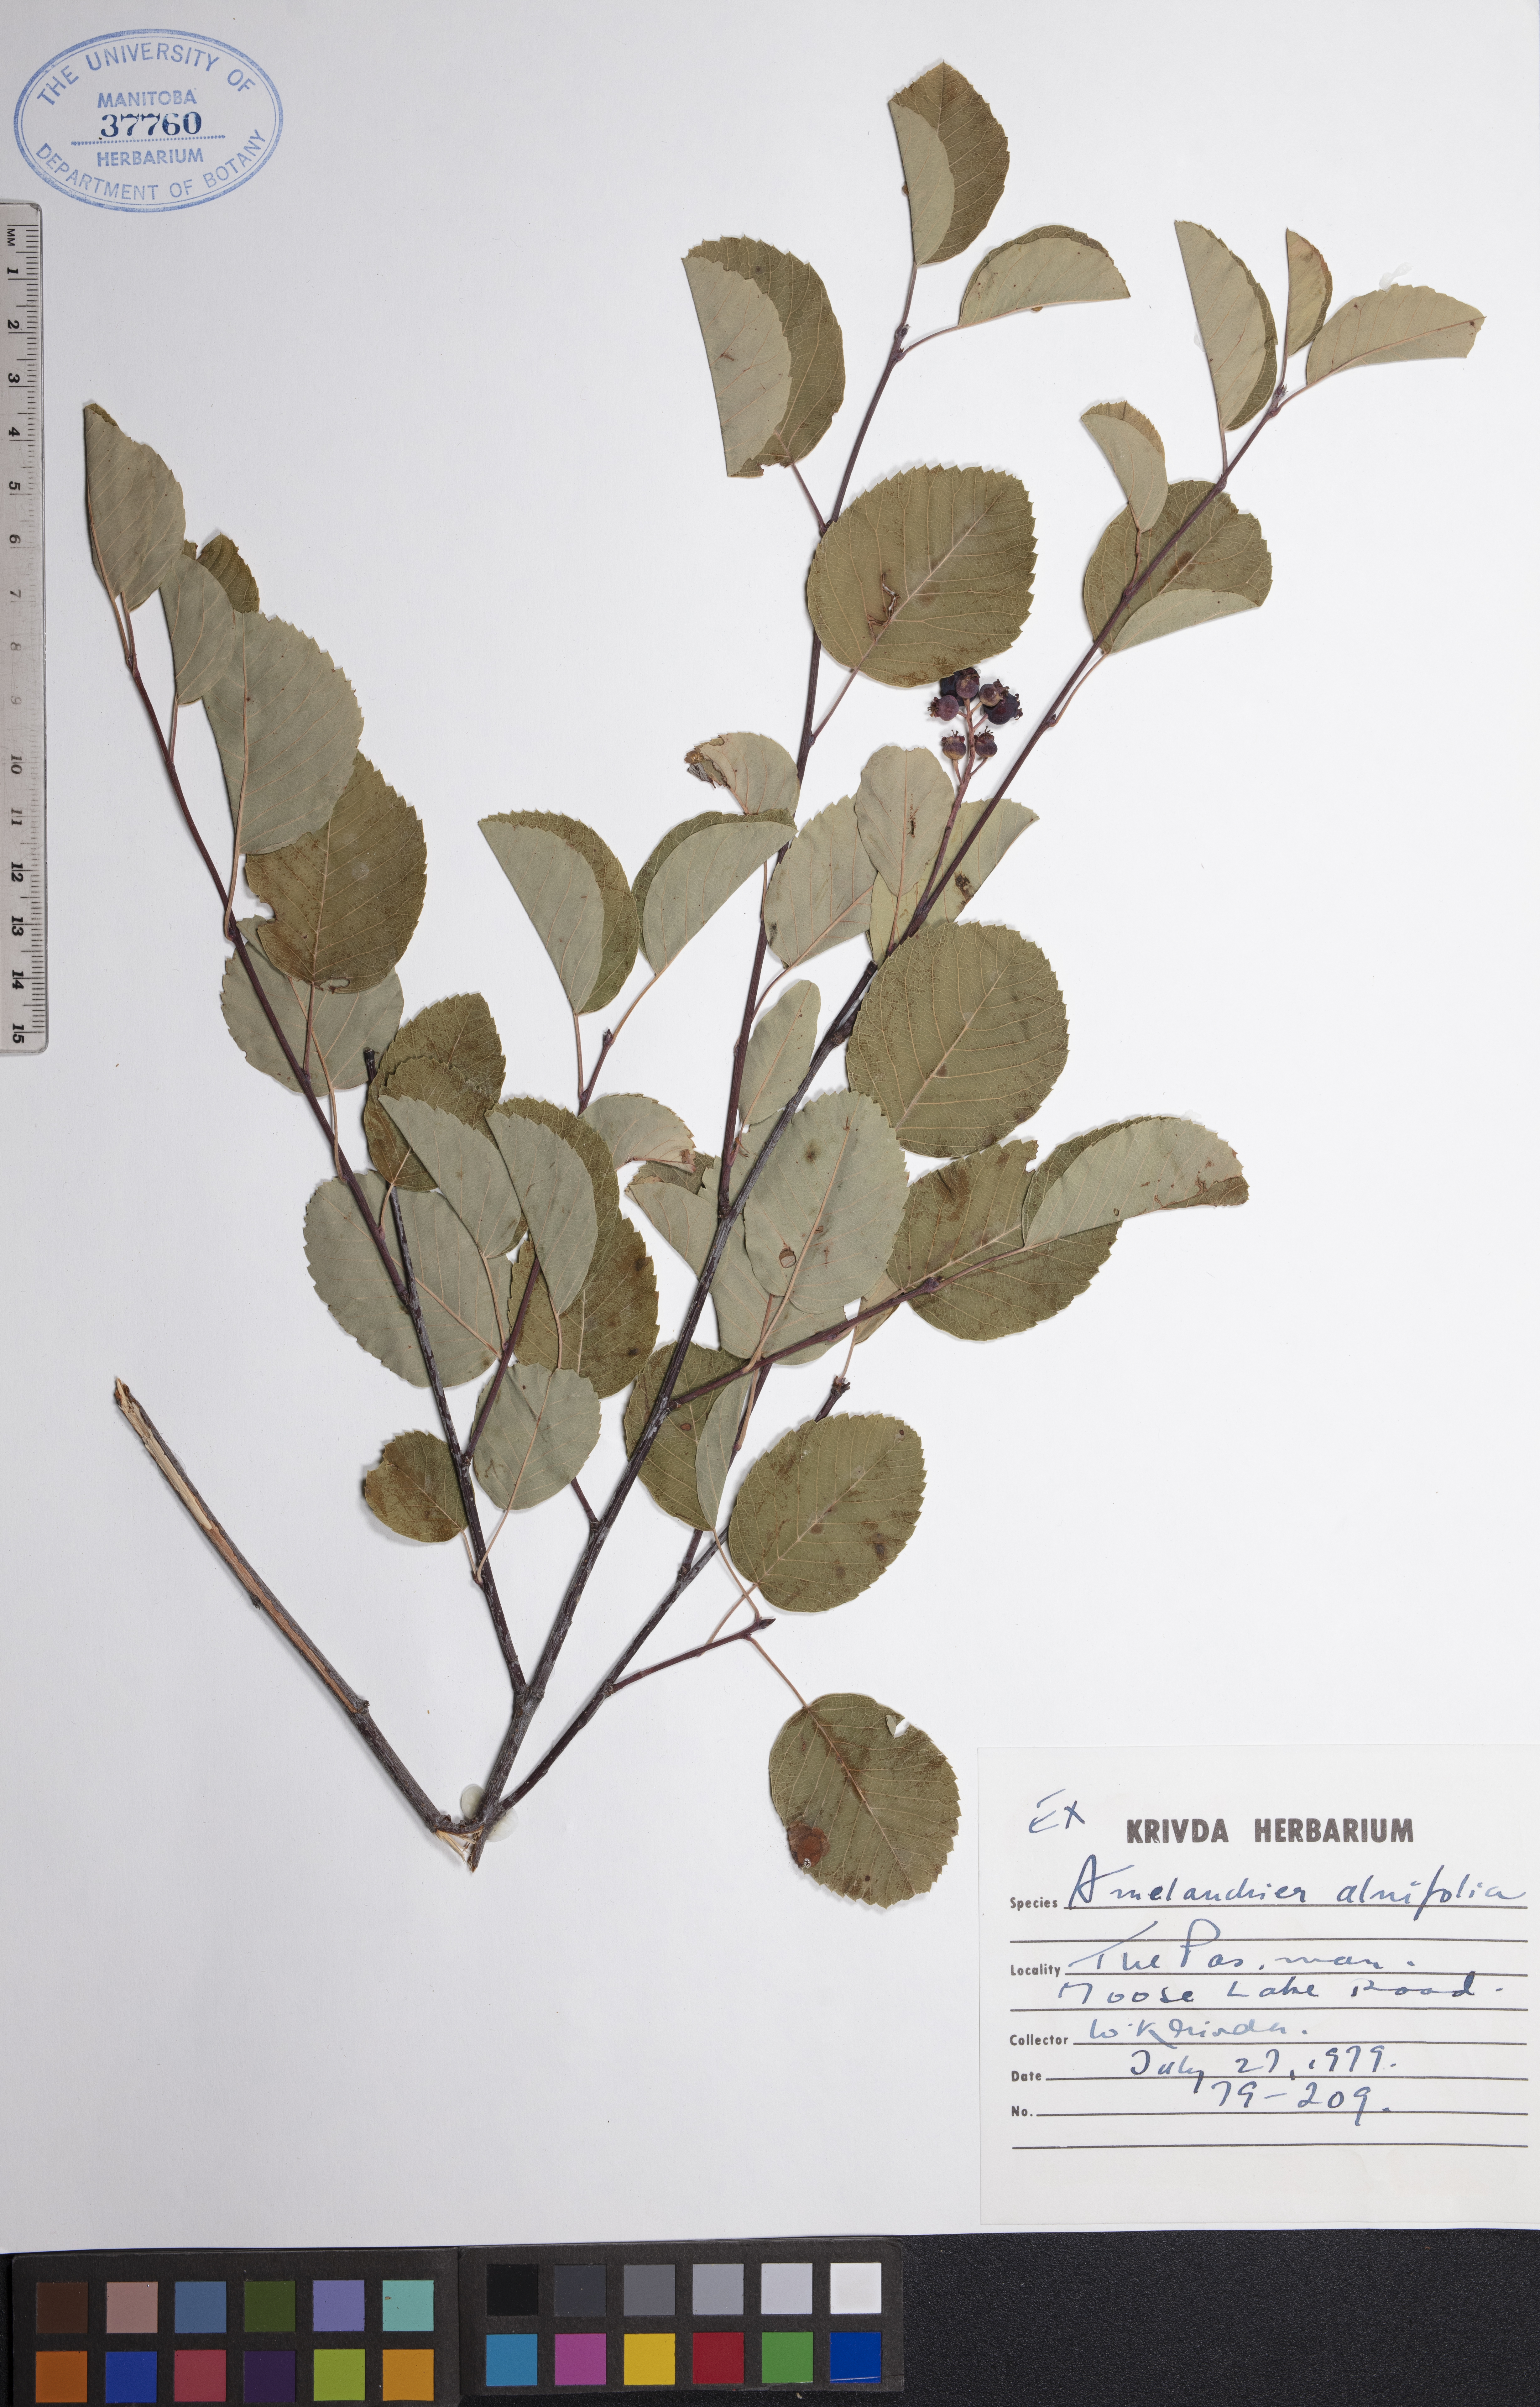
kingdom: Plantae
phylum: Tracheophyta
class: Magnoliopsida
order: Rosales
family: Rosaceae
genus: Amelanchier
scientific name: Amelanchier alnifolia
